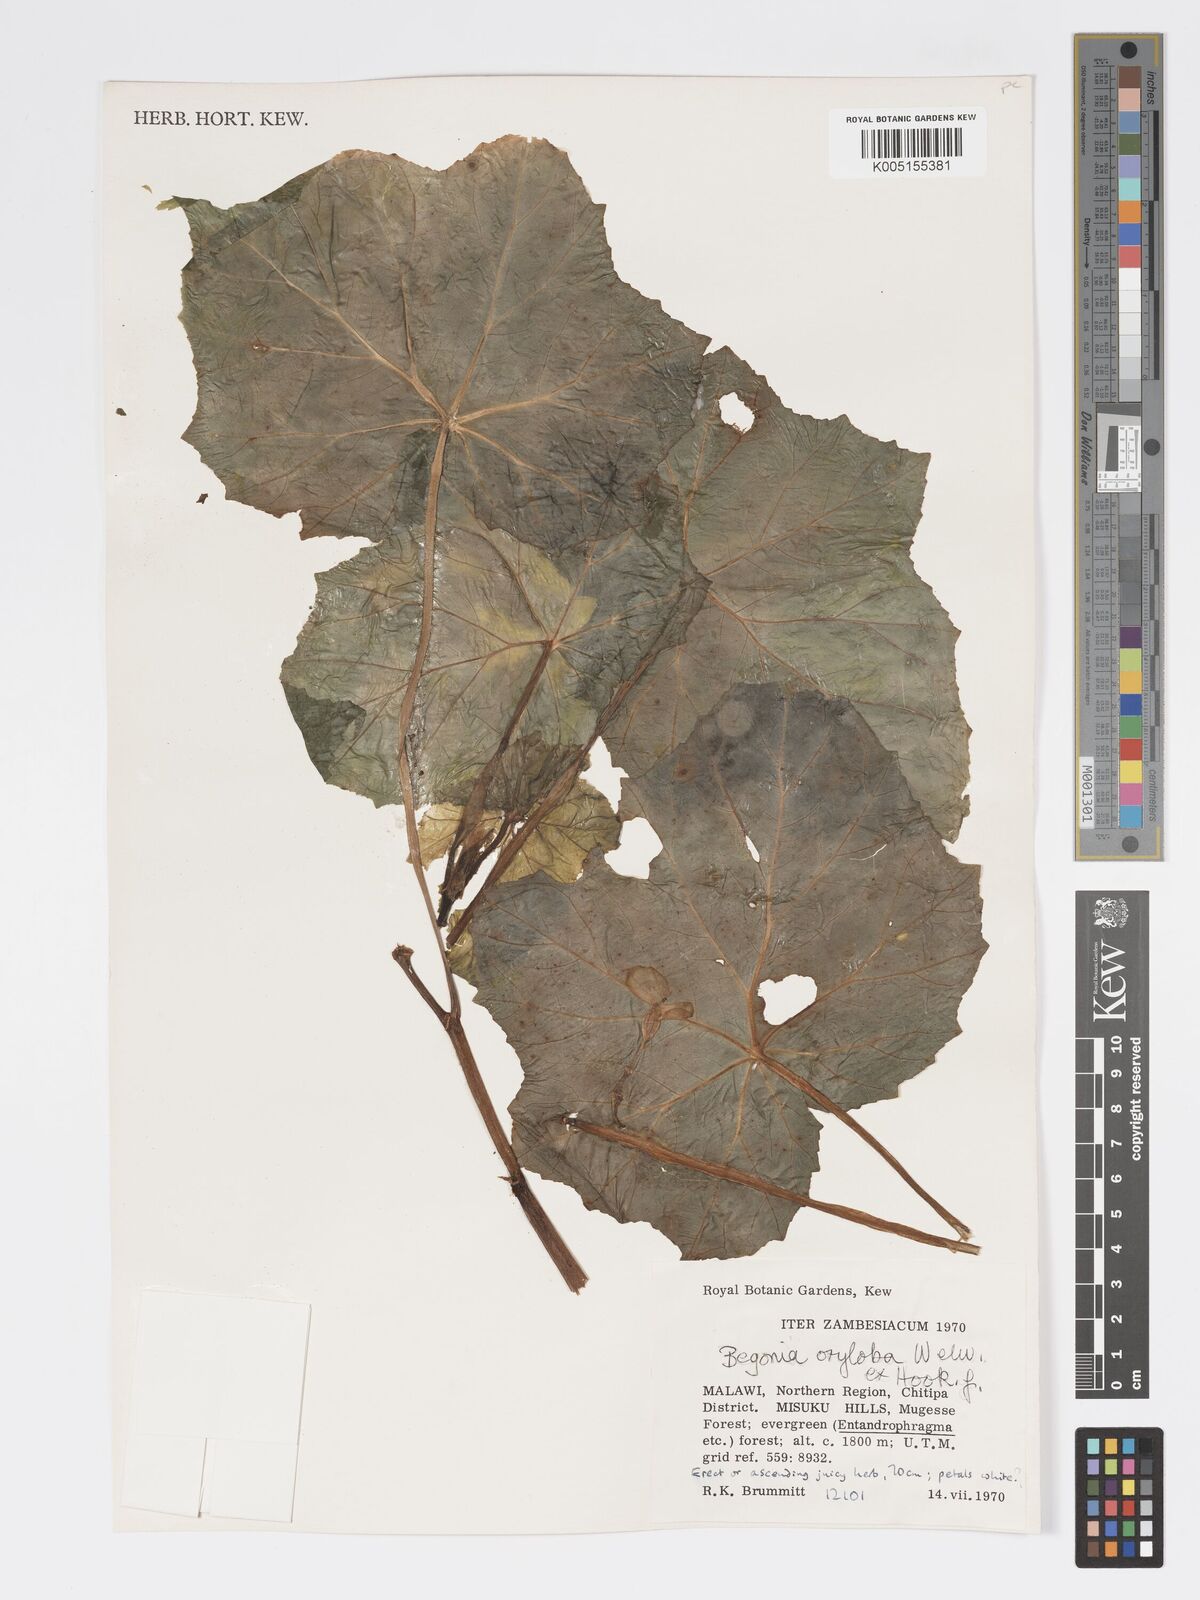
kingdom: Plantae
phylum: Tracheophyta
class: Magnoliopsida
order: Cucurbitales
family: Begoniaceae
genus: Begonia
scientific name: Begonia oxyloba
